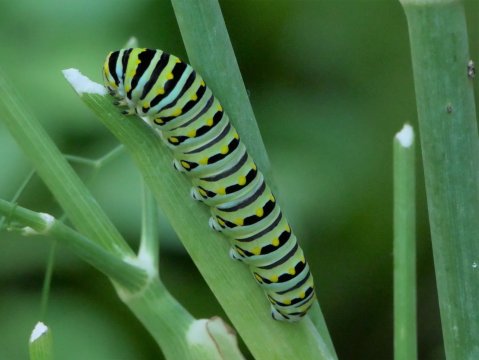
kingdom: Animalia
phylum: Arthropoda
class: Insecta
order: Lepidoptera
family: Papilionidae
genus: Papilio
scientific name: Papilio polyxenes
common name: Black Swallowtail
